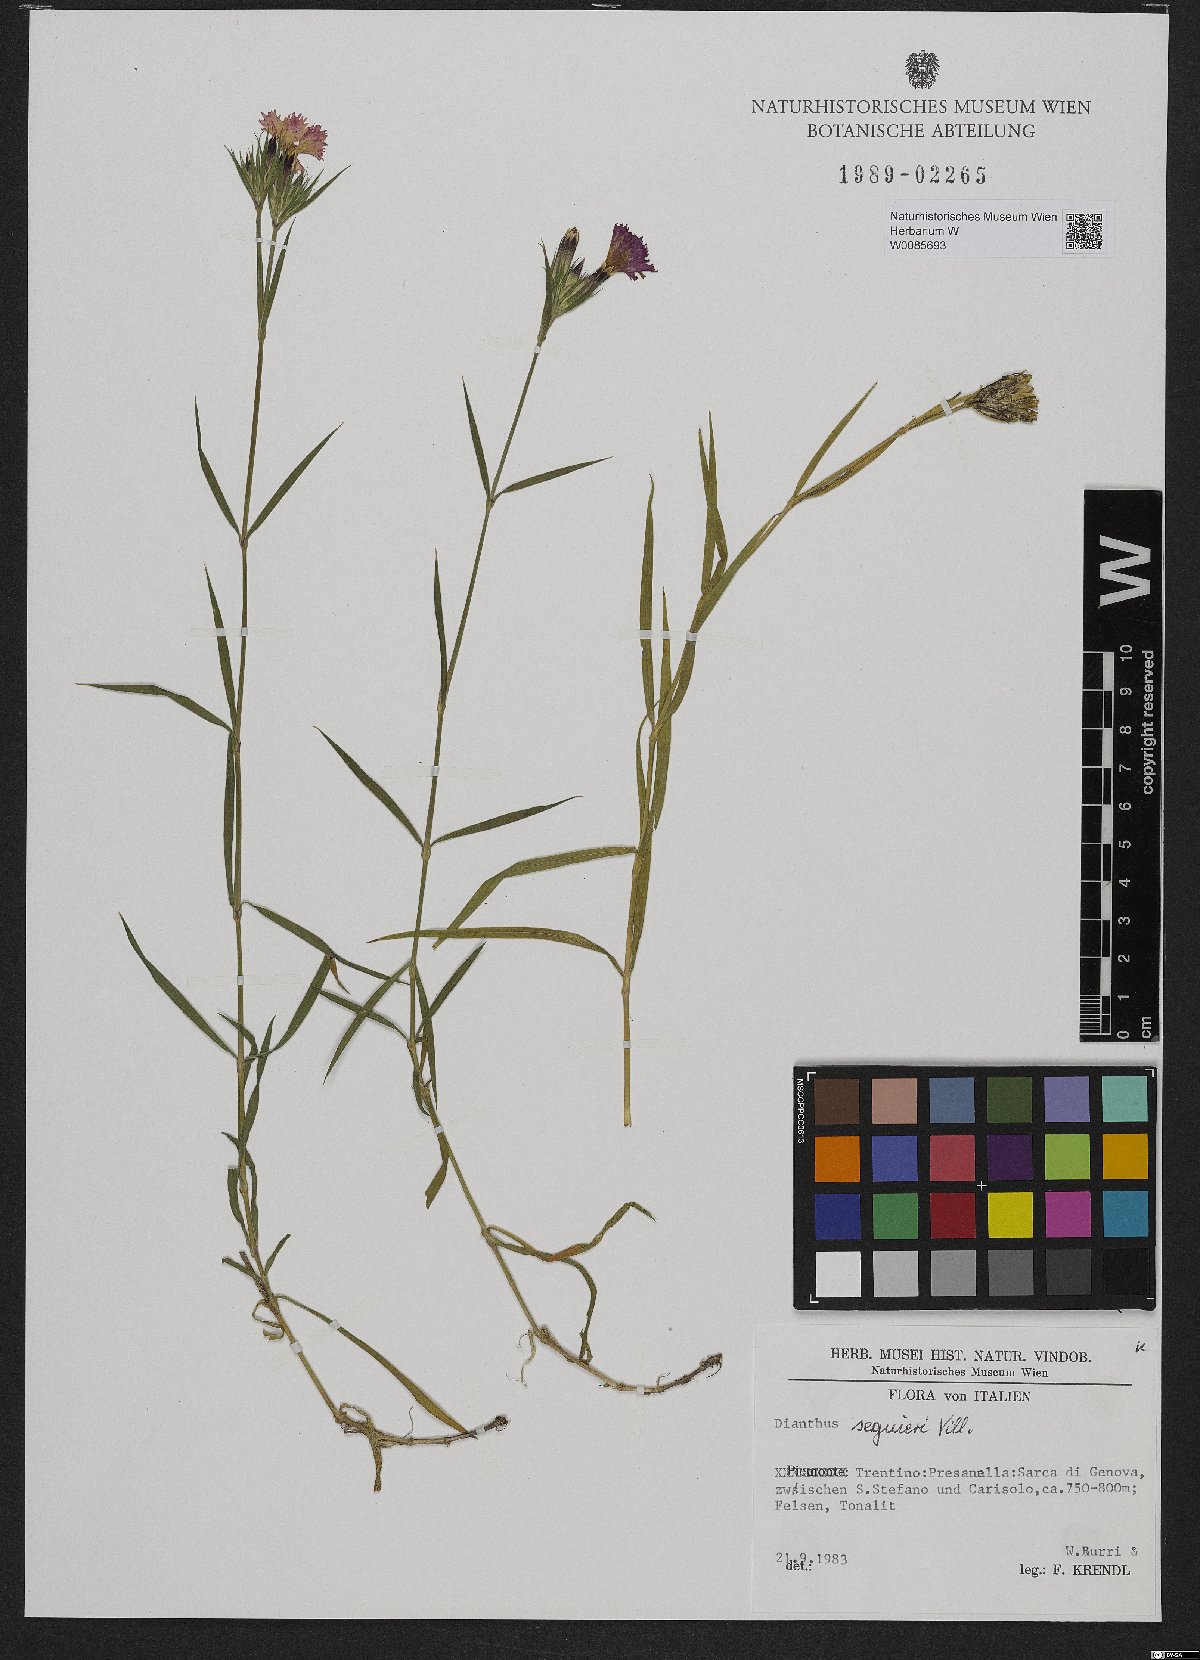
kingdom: Plantae
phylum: Tracheophyta
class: Magnoliopsida
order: Caryophyllales
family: Caryophyllaceae
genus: Dianthus
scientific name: Dianthus seguieri
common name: Ragged pink
